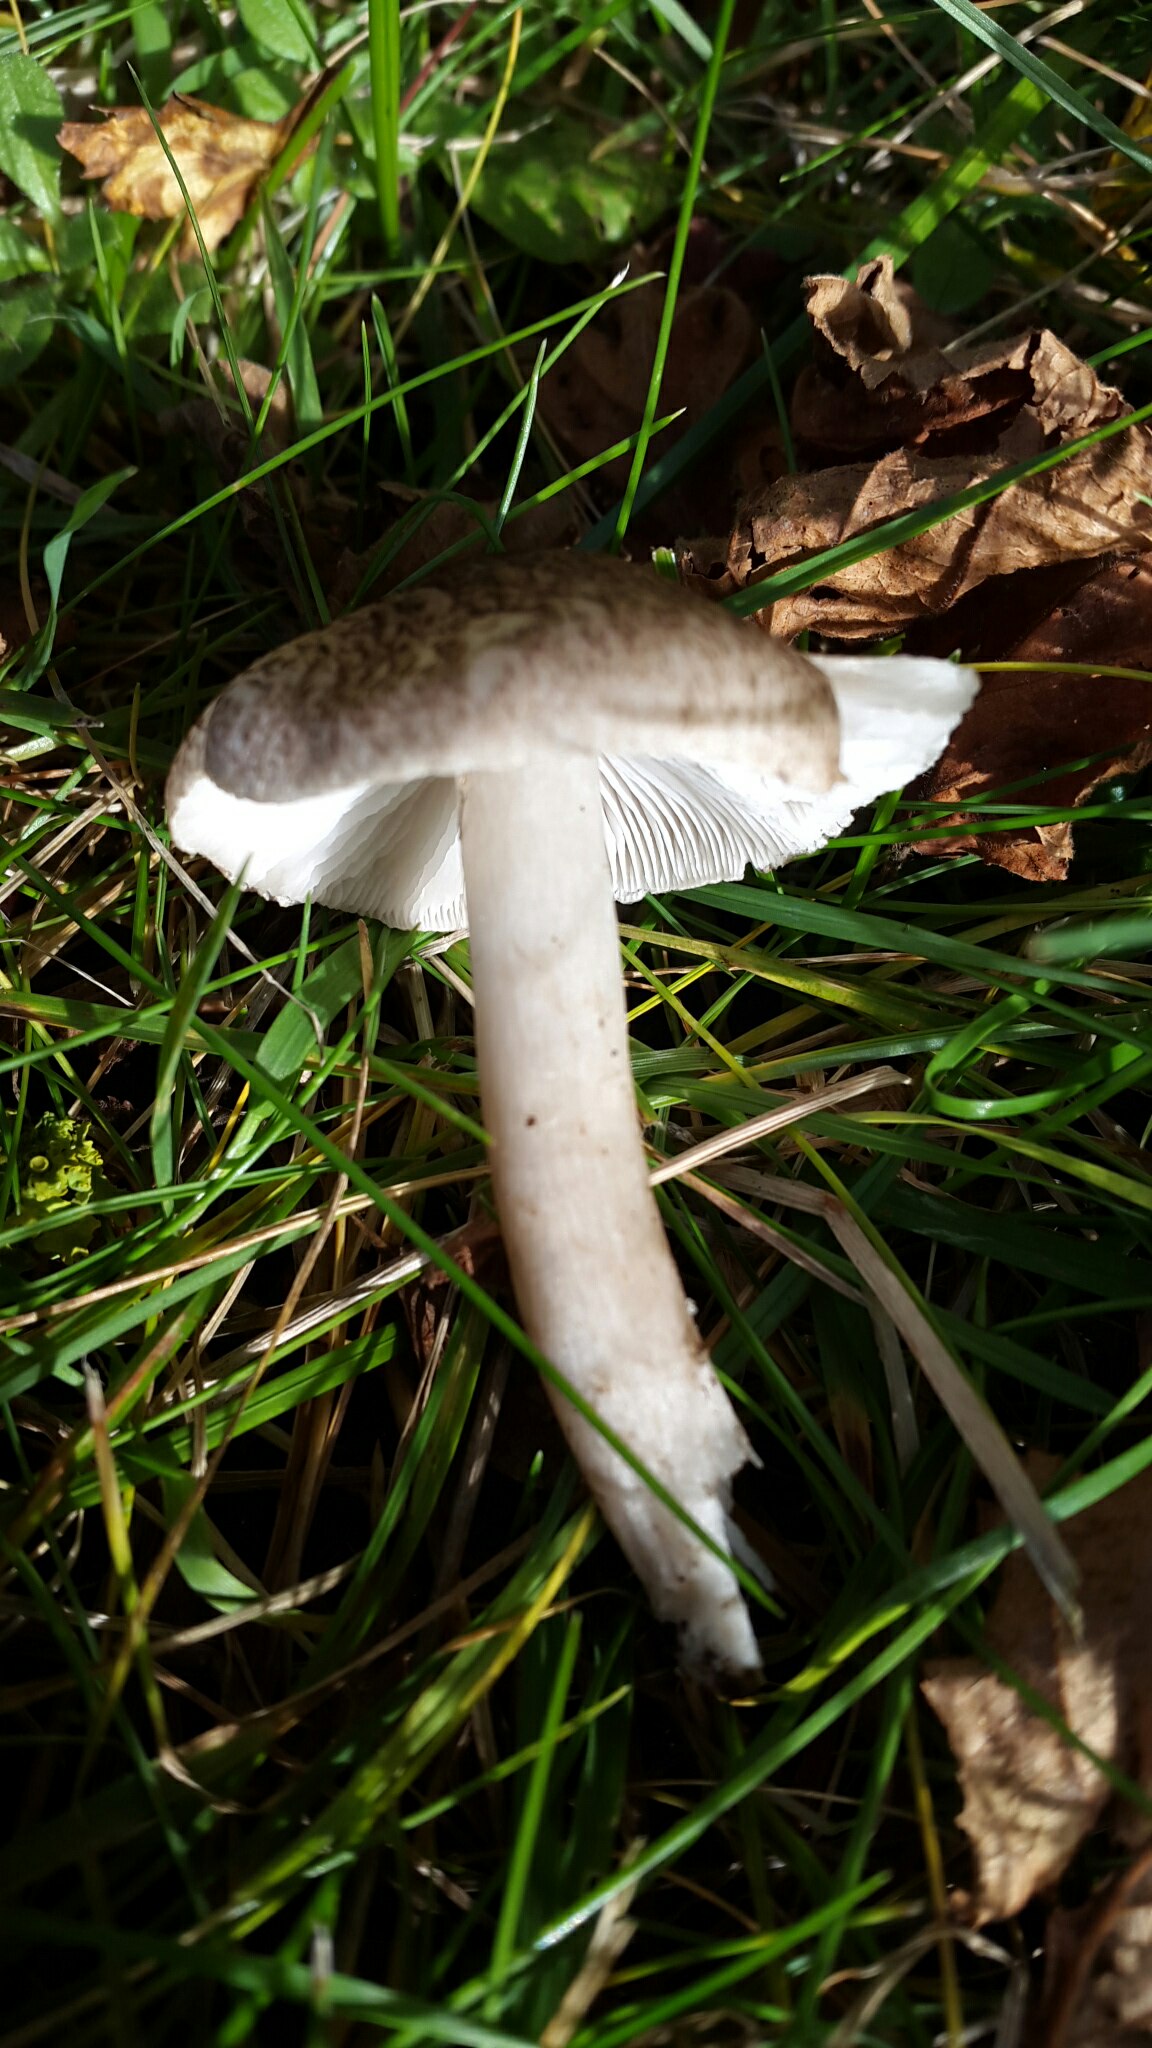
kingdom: Fungi
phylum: Basidiomycota
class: Agaricomycetes
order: Agaricales
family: Tricholomataceae
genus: Tricholoma
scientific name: Tricholoma
